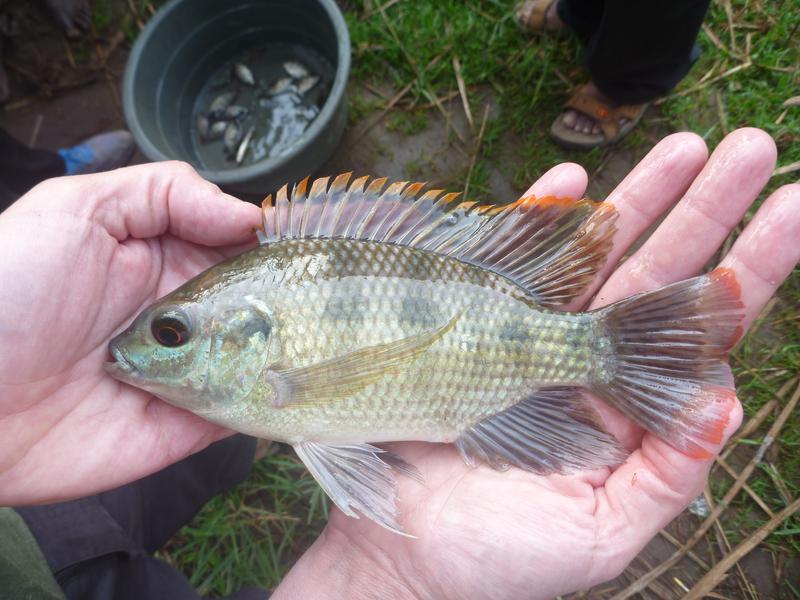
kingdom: Animalia
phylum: Chordata
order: Perciformes
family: Cichlidae
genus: Oreochromis
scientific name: Oreochromis upembae
